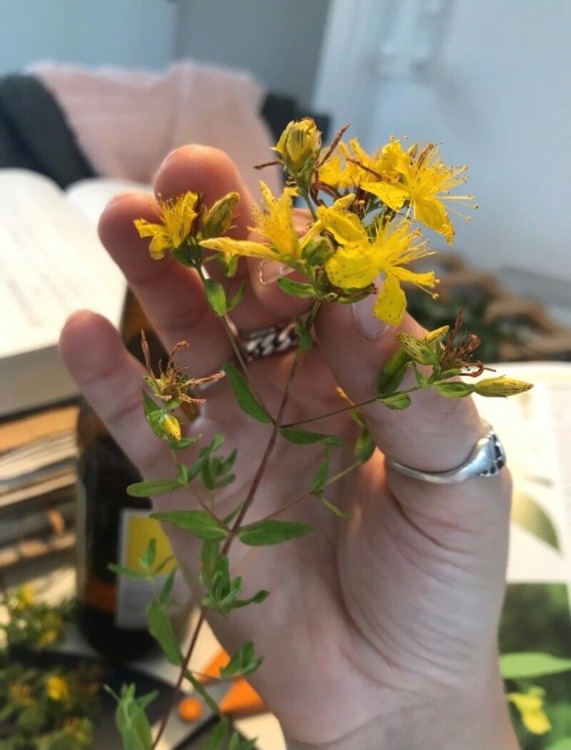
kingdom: Plantae
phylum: Tracheophyta
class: Magnoliopsida
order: Malpighiales
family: Hypericaceae
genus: Hypericum
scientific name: Hypericum perforatum
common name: Prikbladet perikon
